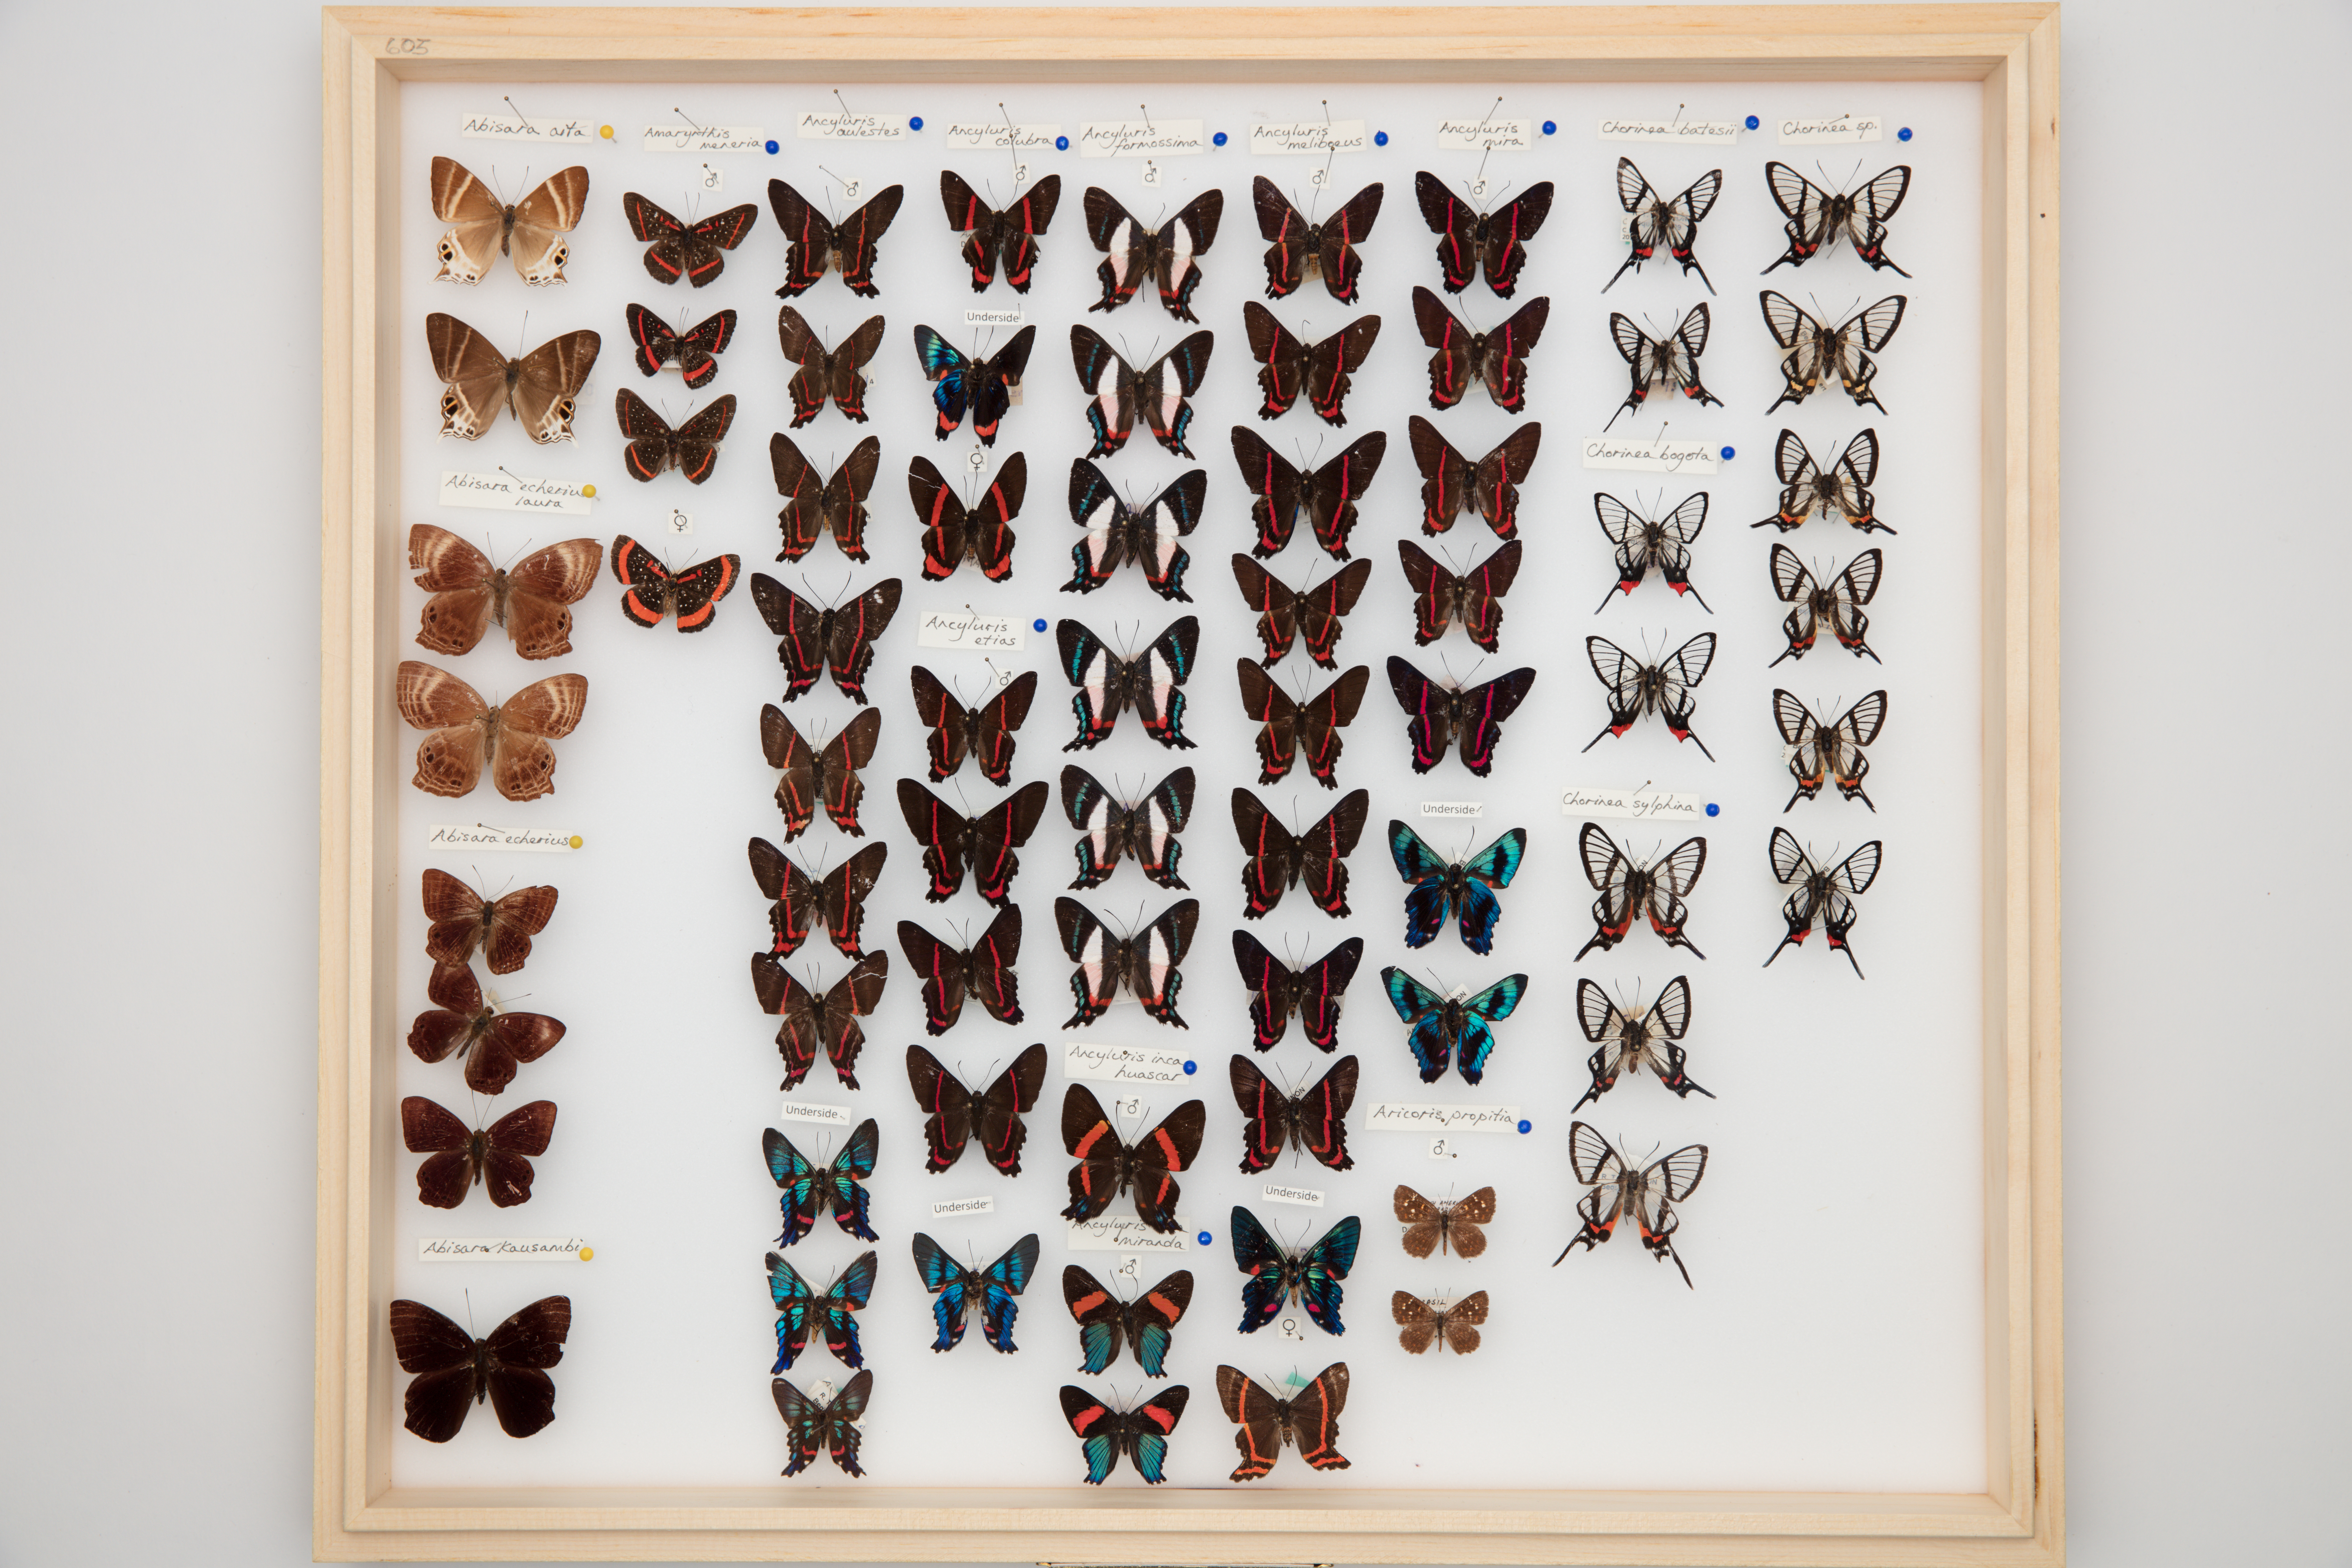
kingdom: Animalia
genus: Ancyluris
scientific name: Ancyluris mira
